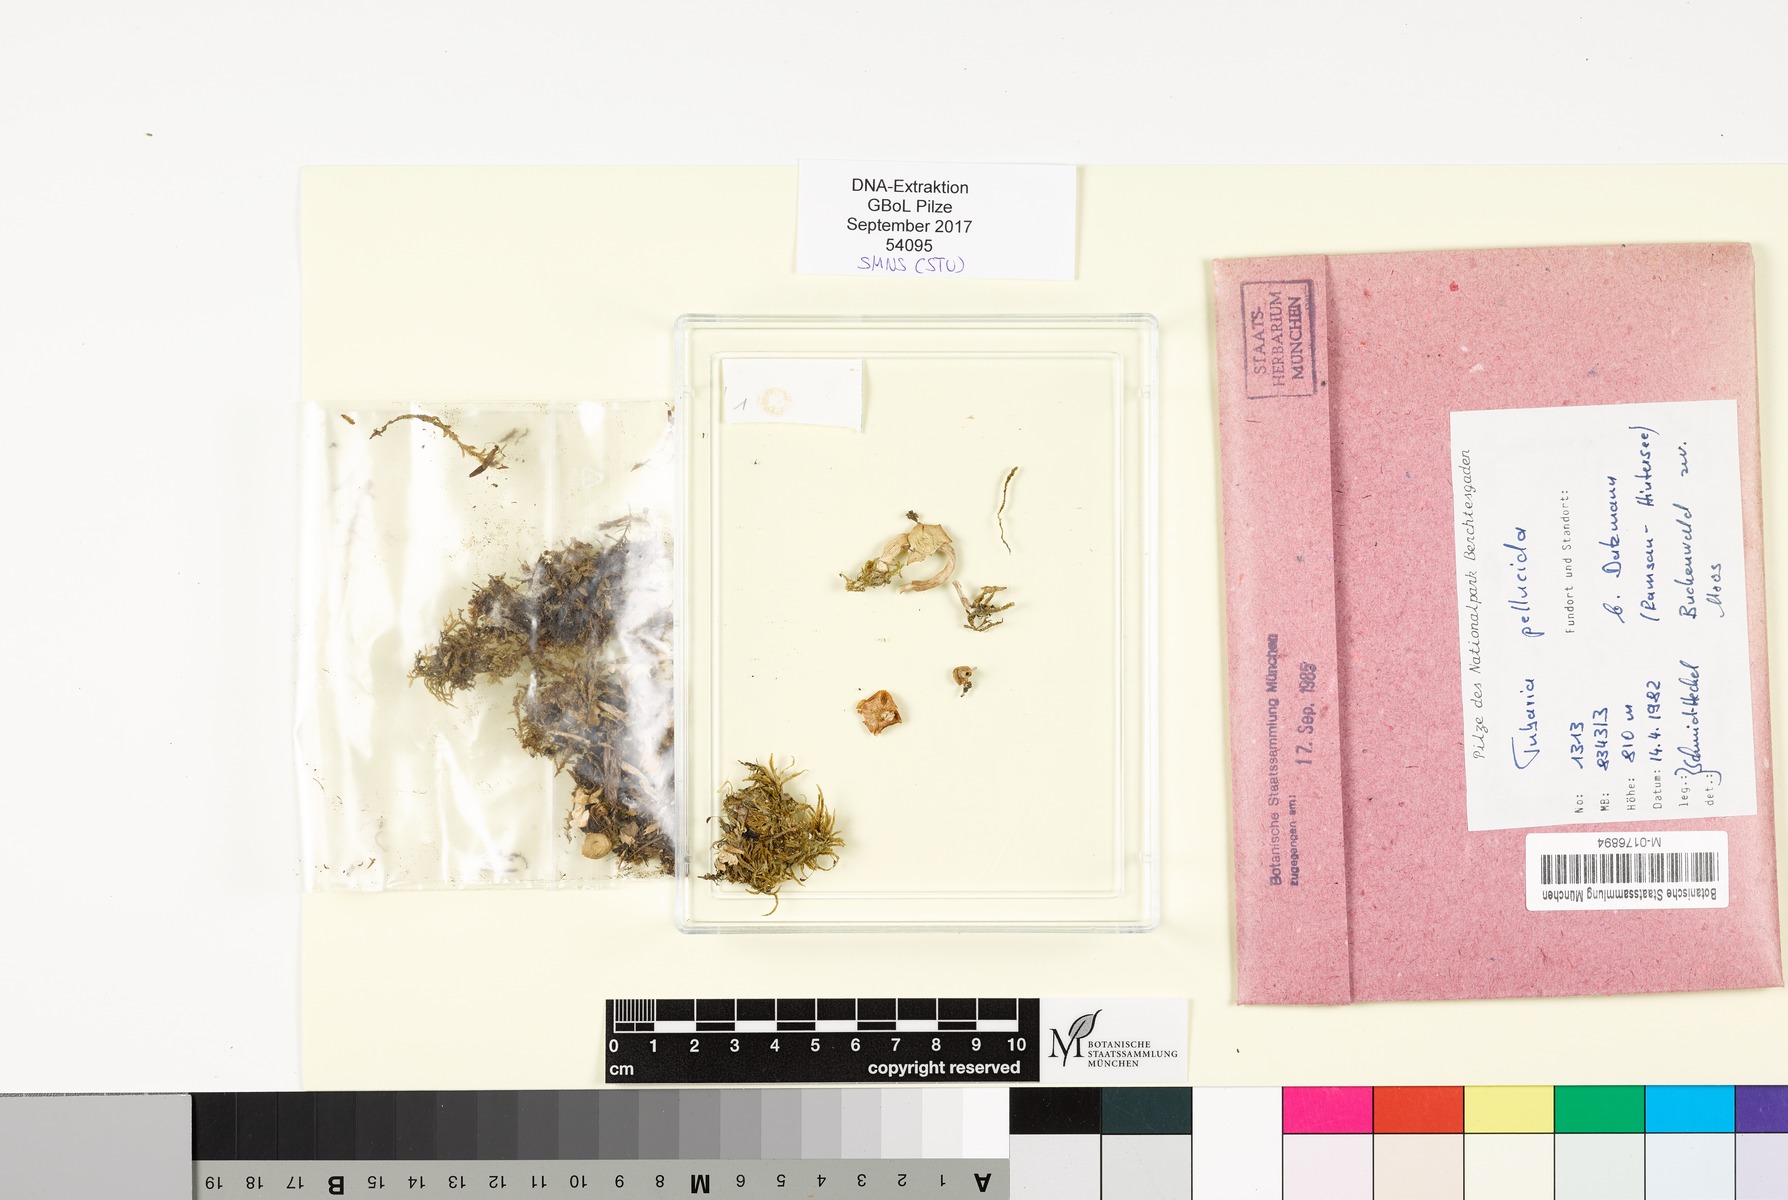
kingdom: Fungi
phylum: Basidiomycota
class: Agaricomycetes
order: Agaricales
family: Tubariaceae
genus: Tubaria
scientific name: Tubaria romagnesiana
